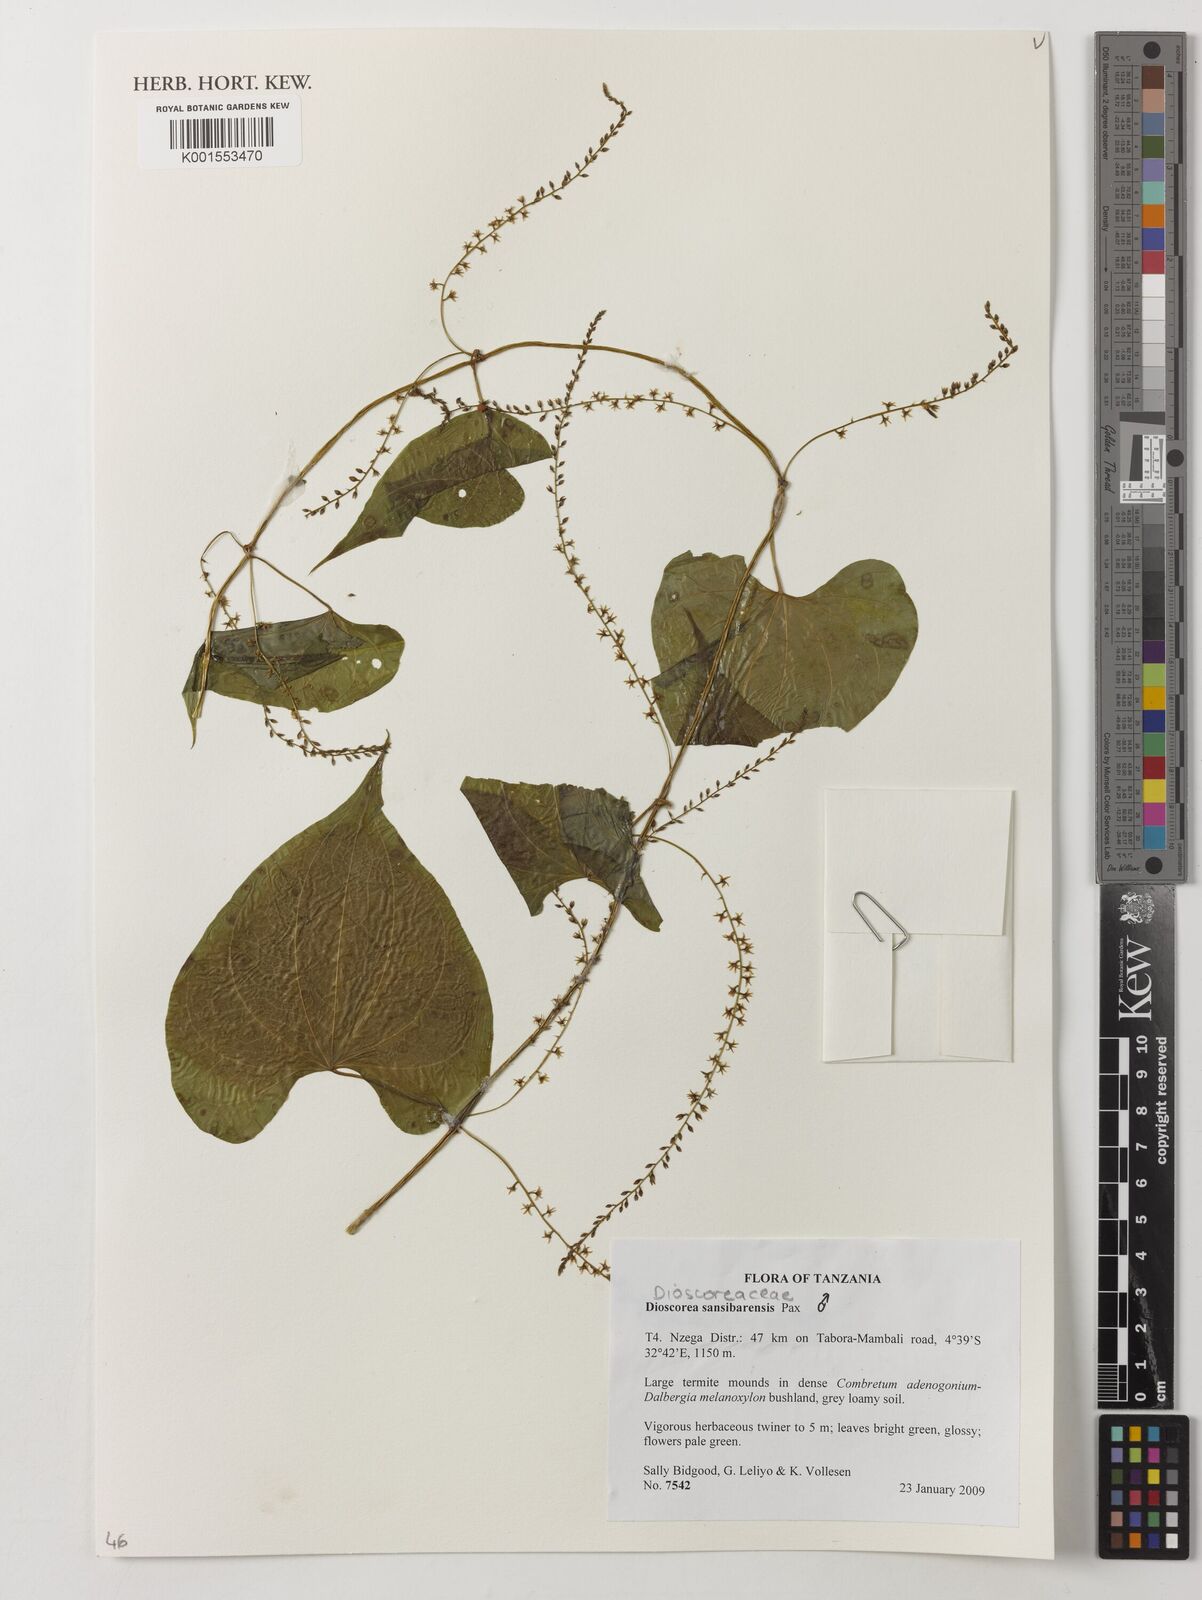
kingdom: Plantae
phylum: Tracheophyta
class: Liliopsida
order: Dioscoreales
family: Dioscoreaceae
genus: Dioscorea
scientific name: Dioscorea sansibarensis
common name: Zanzibar yam
